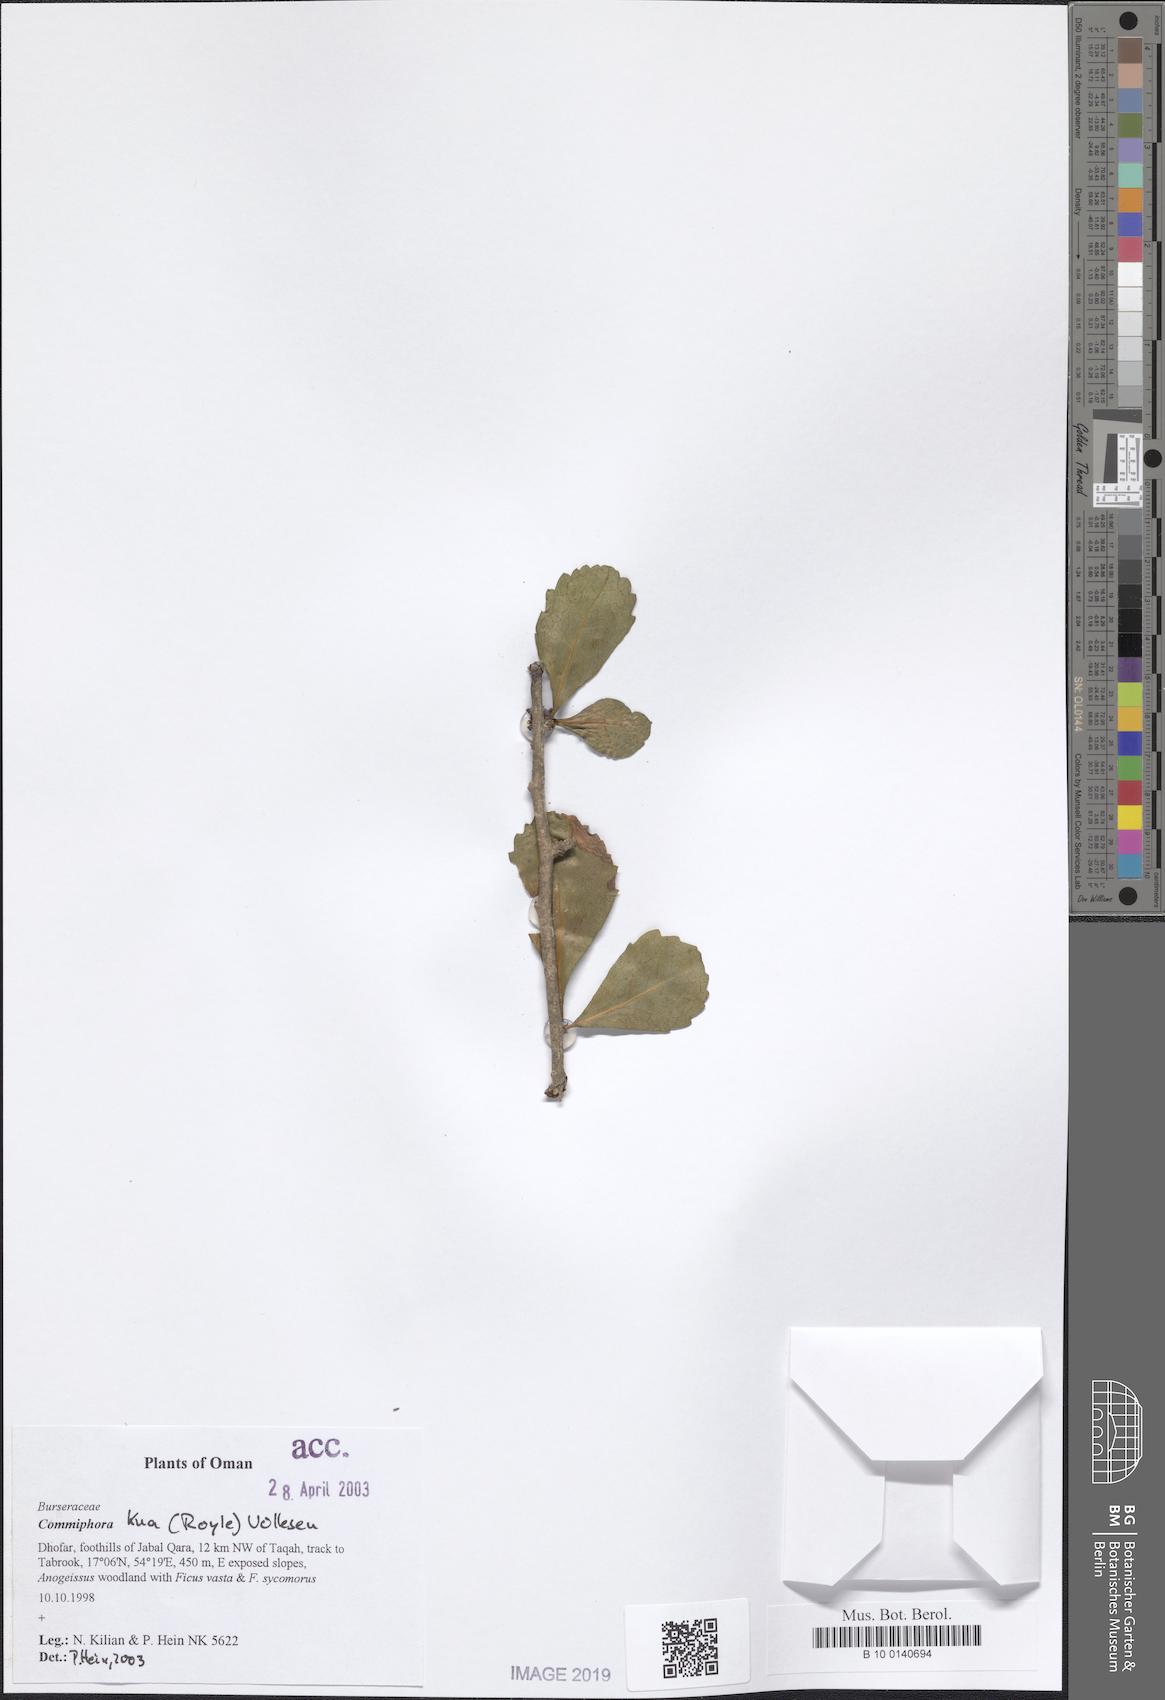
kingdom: Plantae
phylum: Tracheophyta
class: Magnoliopsida
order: Sapindales
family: Burseraceae
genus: Commiphora
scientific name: Commiphora kua
